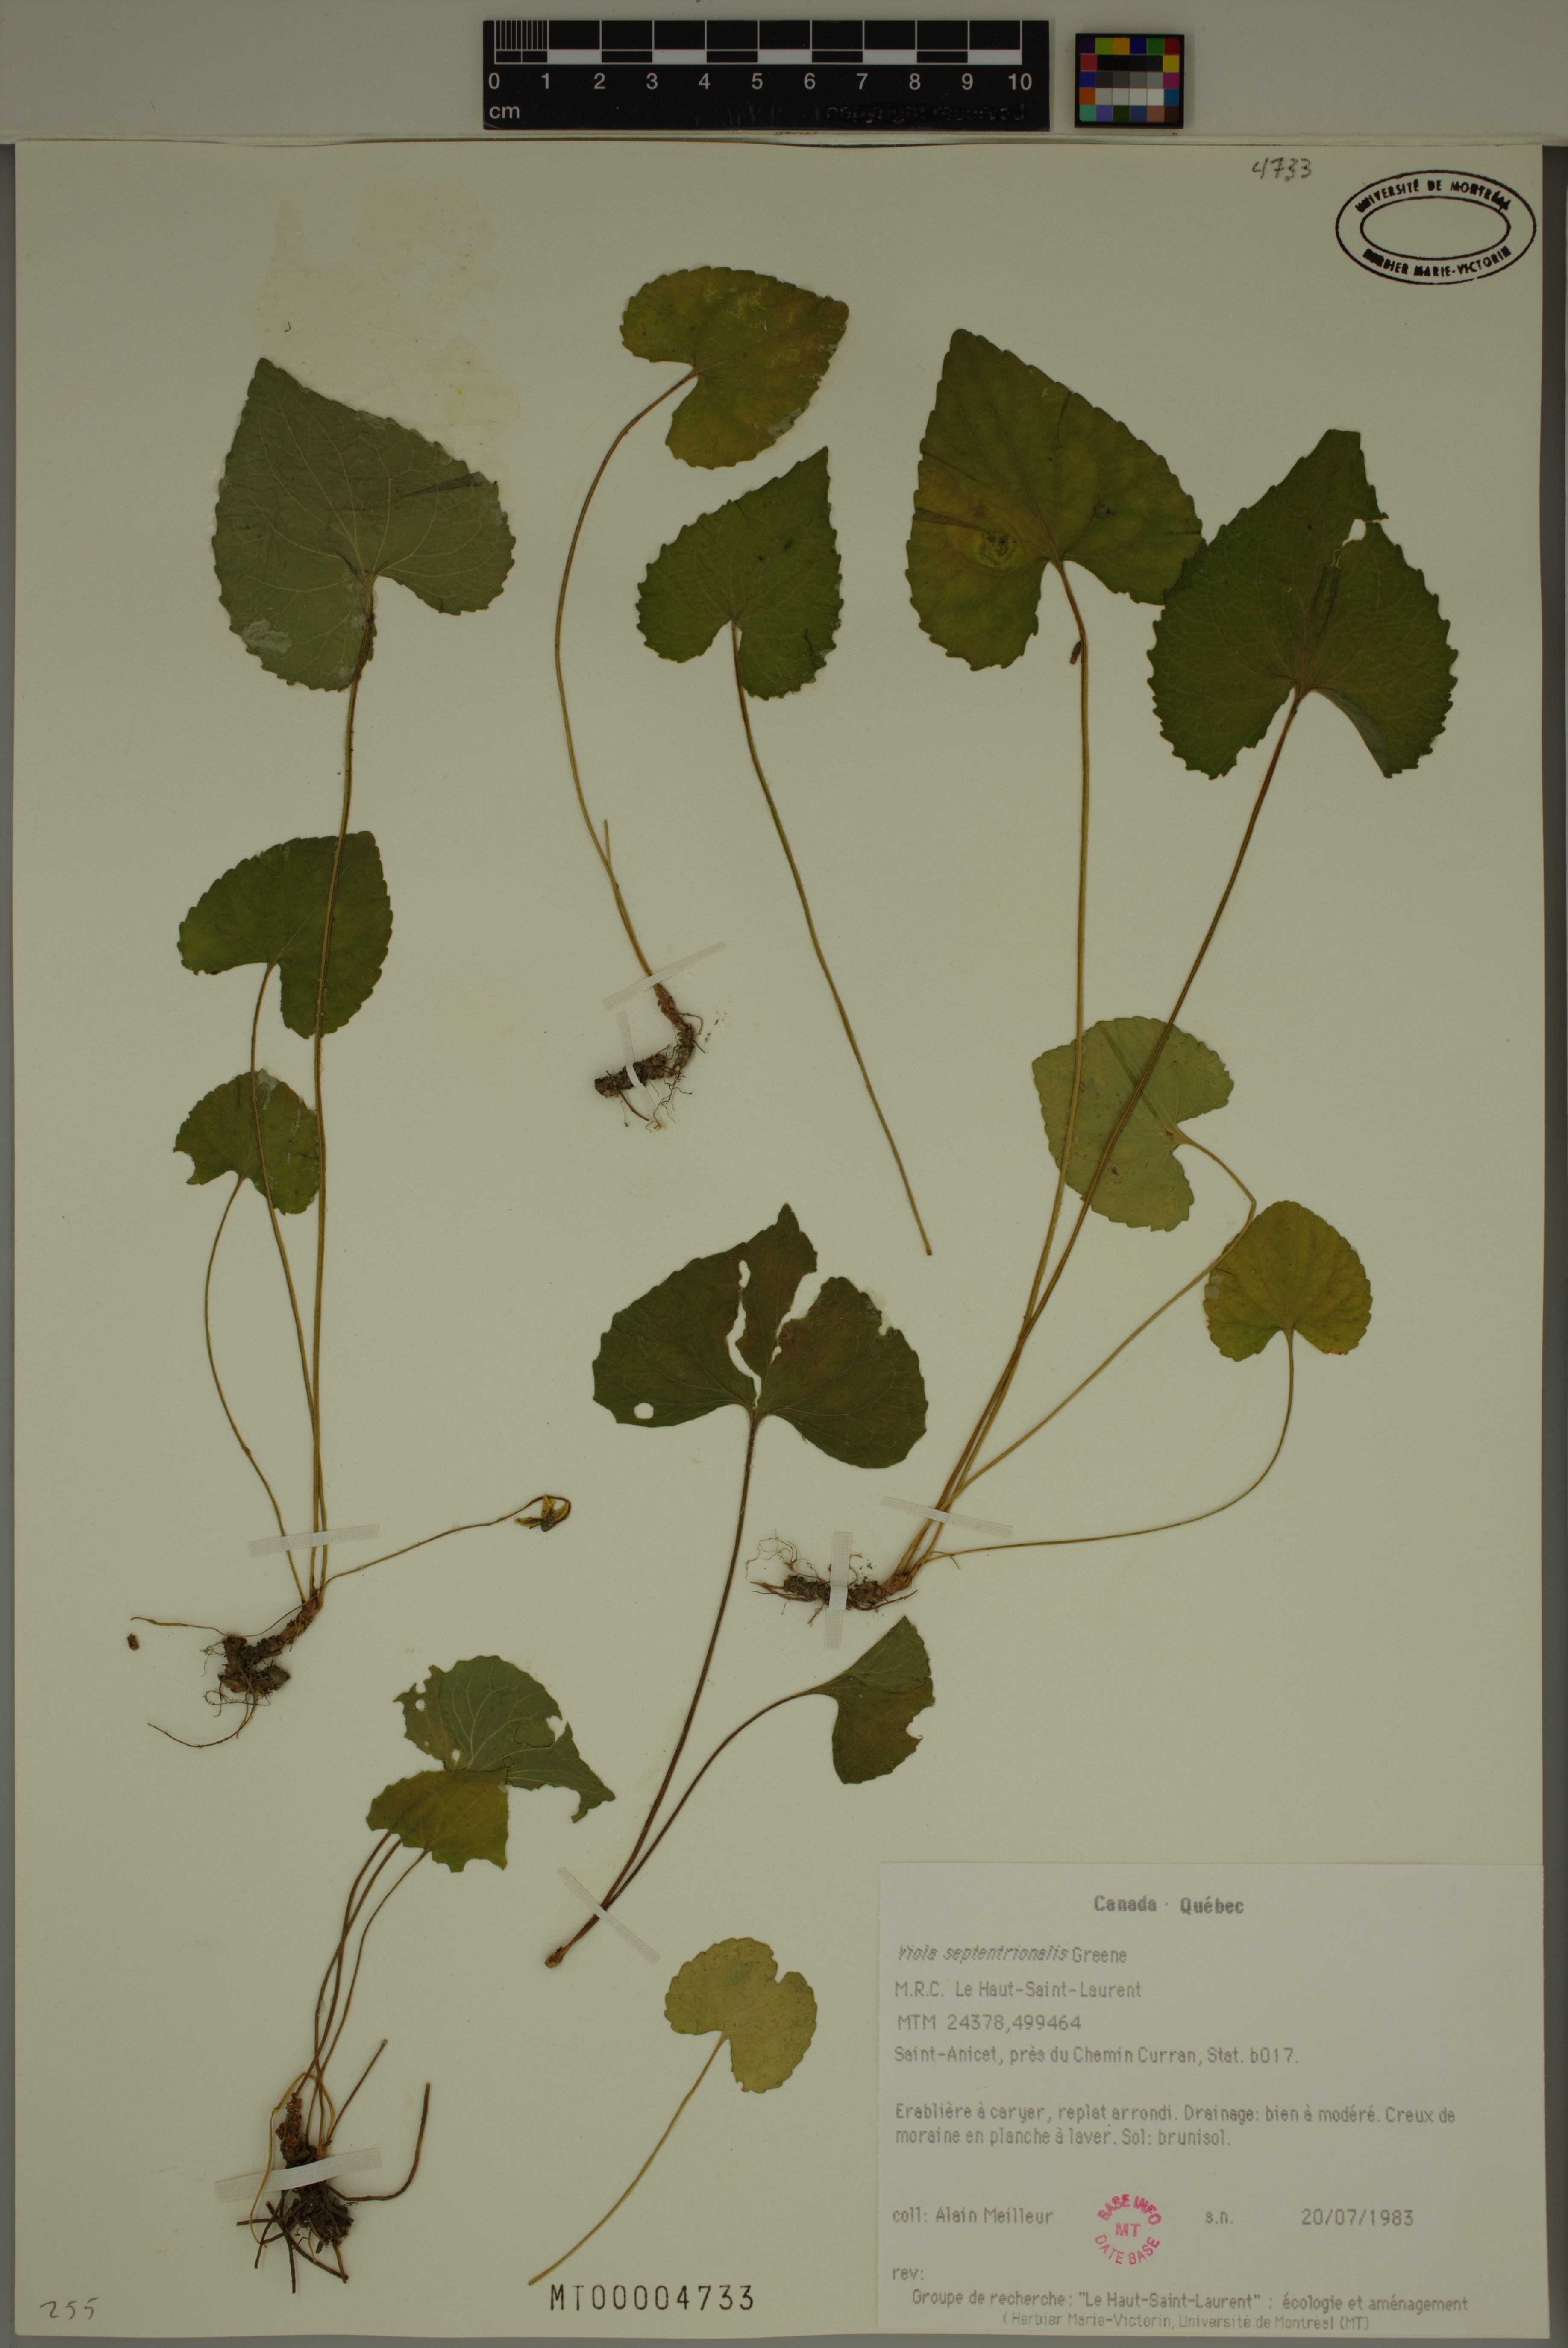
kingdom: Plantae
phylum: Tracheophyta
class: Magnoliopsida
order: Malpighiales
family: Violaceae
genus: Viola
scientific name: Viola sororia
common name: Dooryard violet
